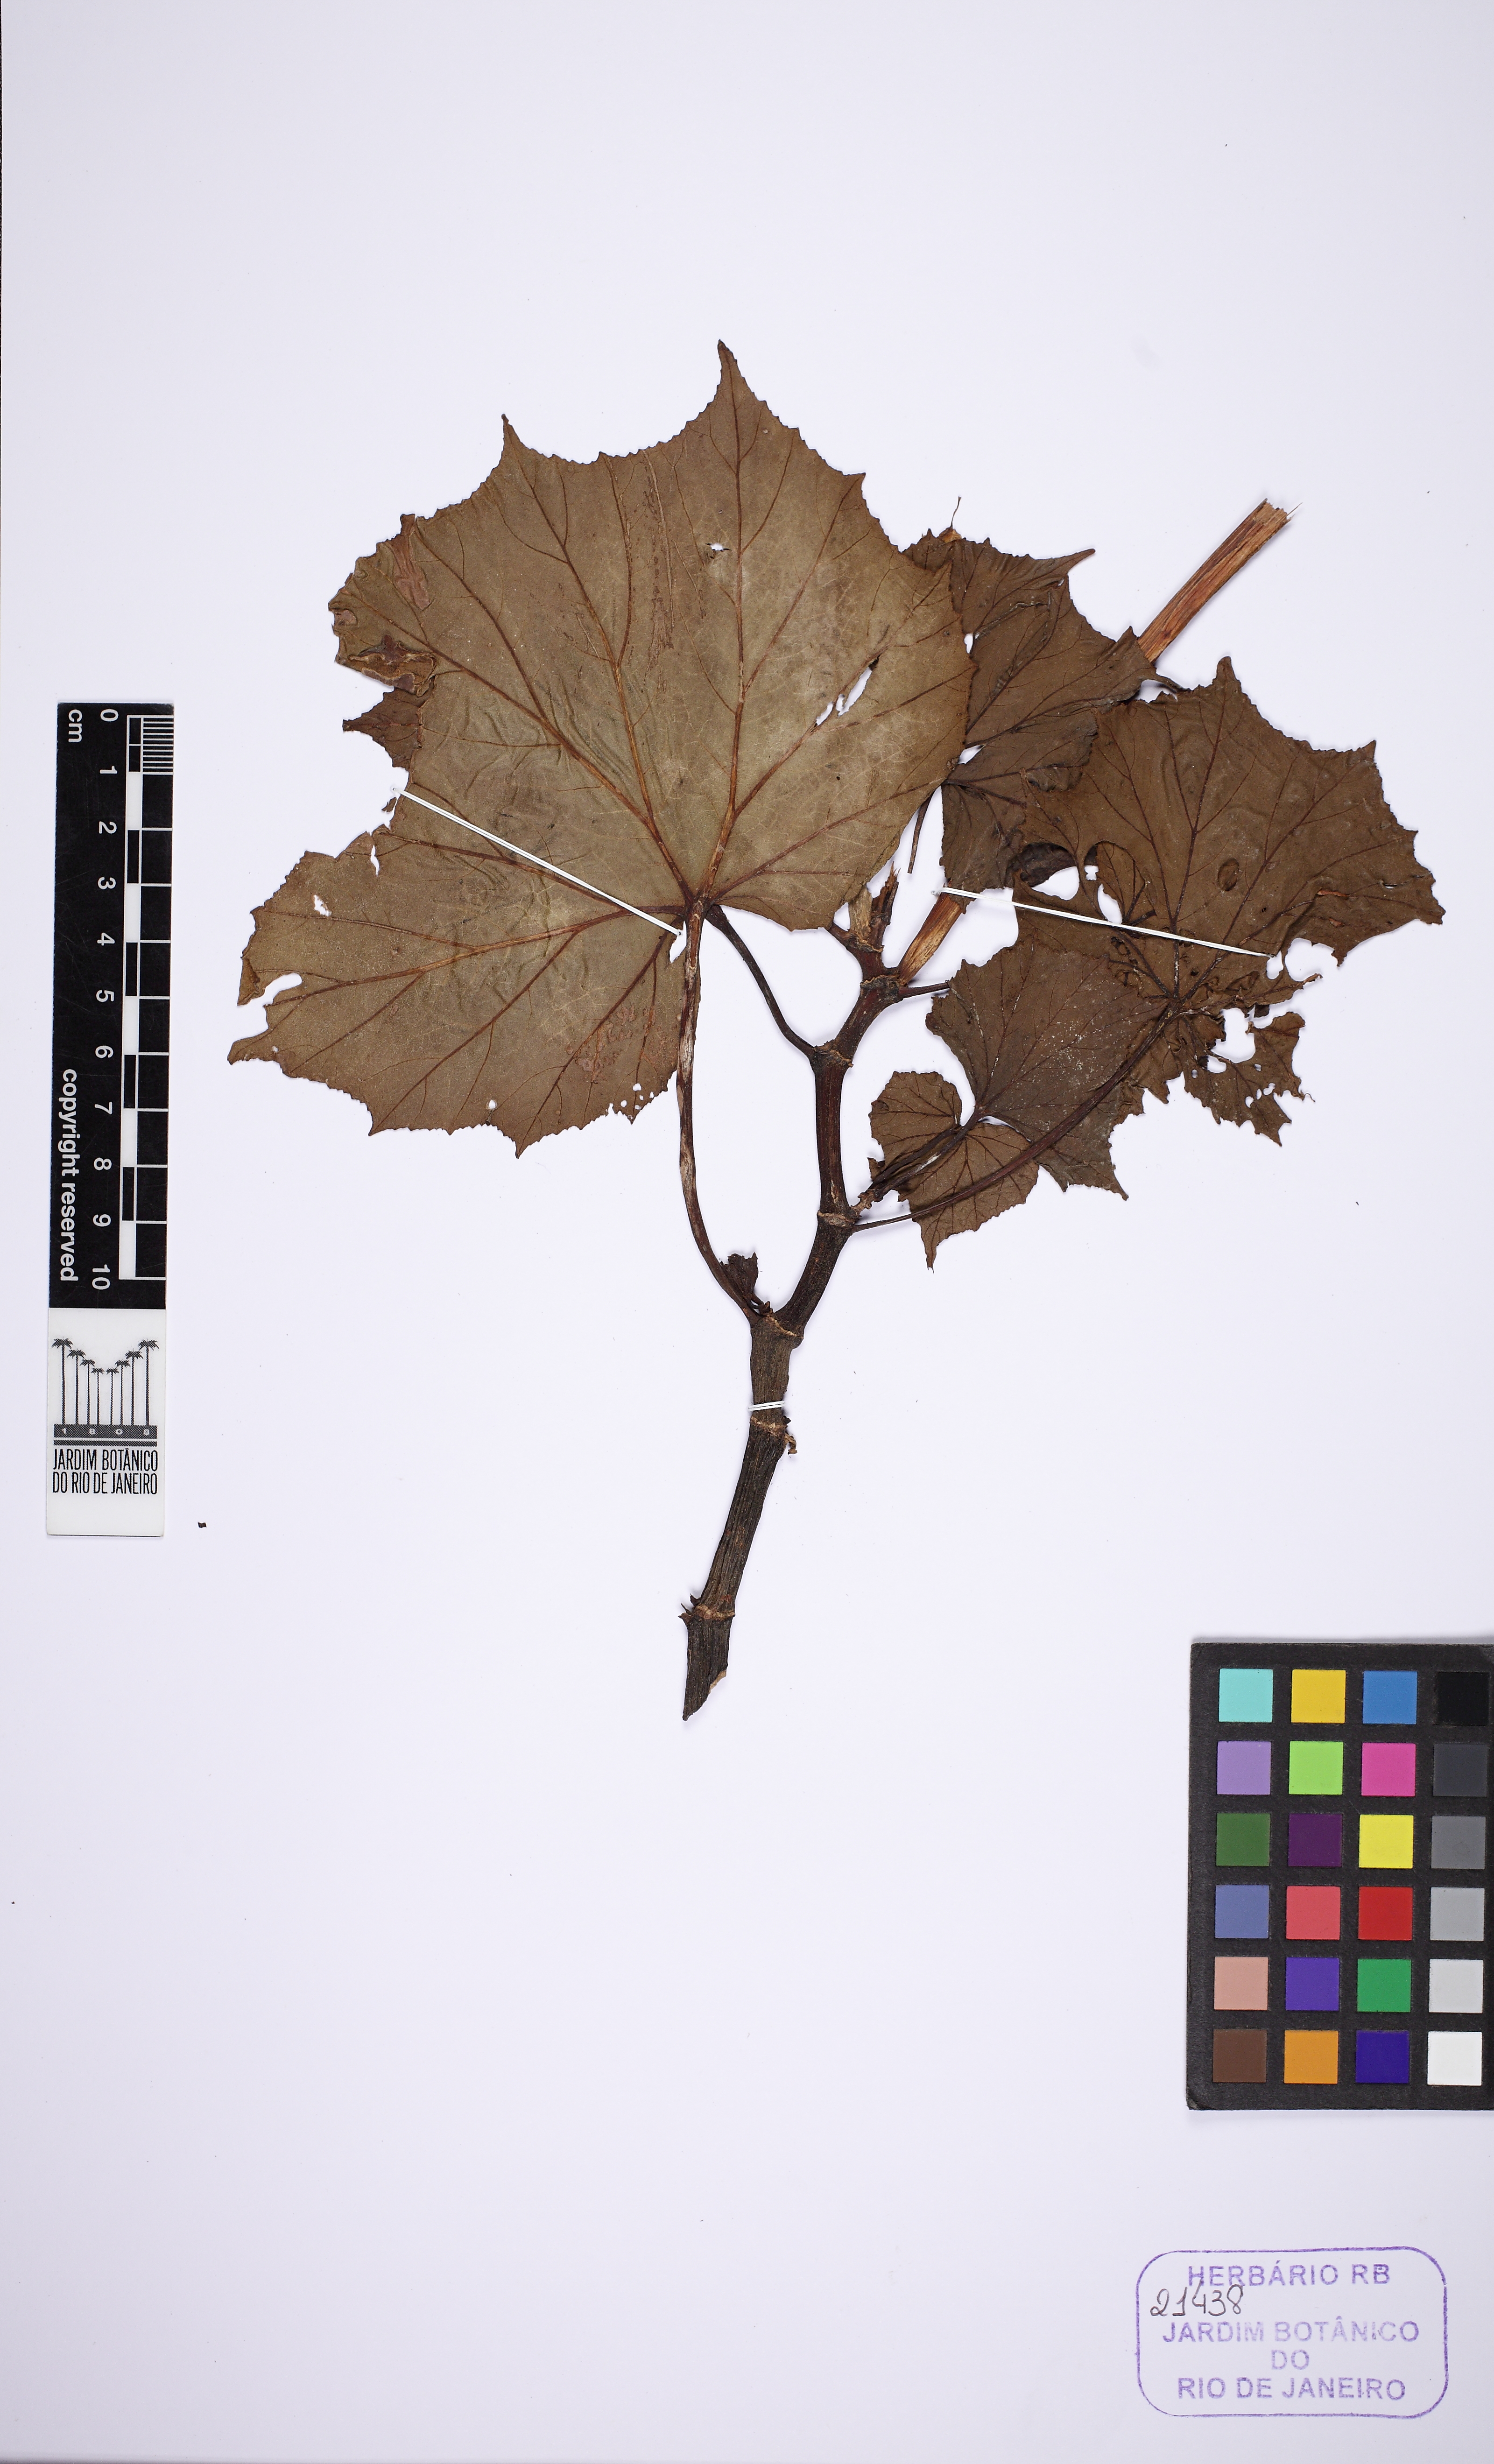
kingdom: Plantae
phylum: Tracheophyta
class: Magnoliopsida
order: Cucurbitales
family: Begoniaceae
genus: Begonia
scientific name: Begonia reniformis
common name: Grapeleaf begonia
